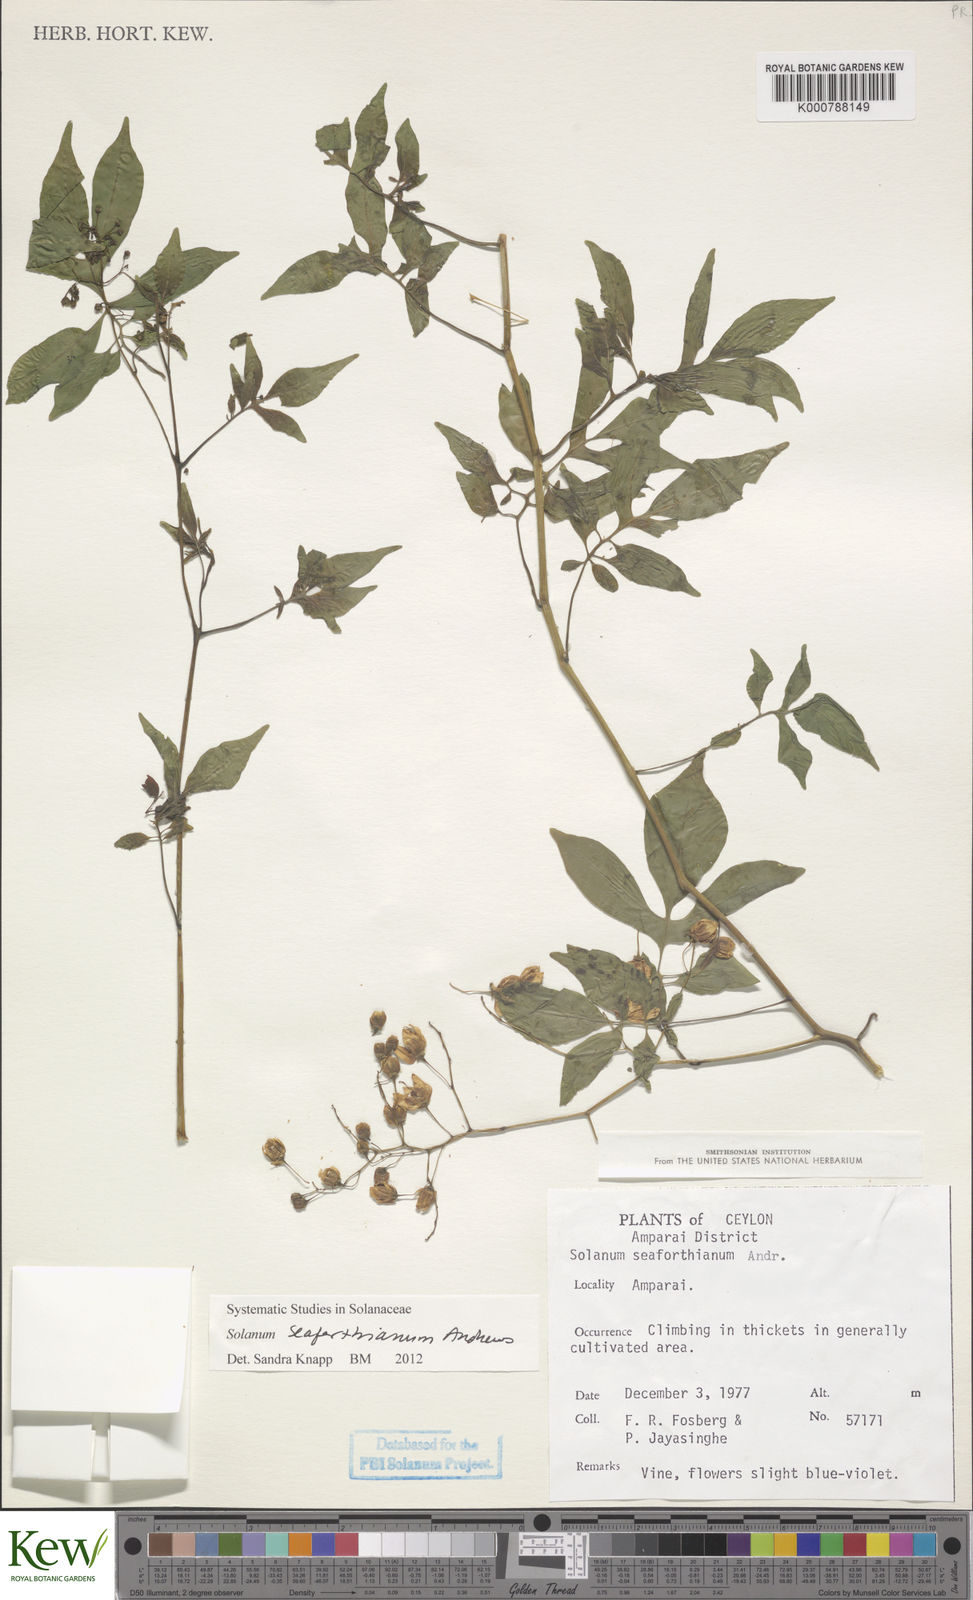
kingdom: Plantae
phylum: Tracheophyta
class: Magnoliopsida
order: Solanales
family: Solanaceae
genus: Solanum
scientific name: Solanum seaforthianum
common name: Brazilian nightshade
